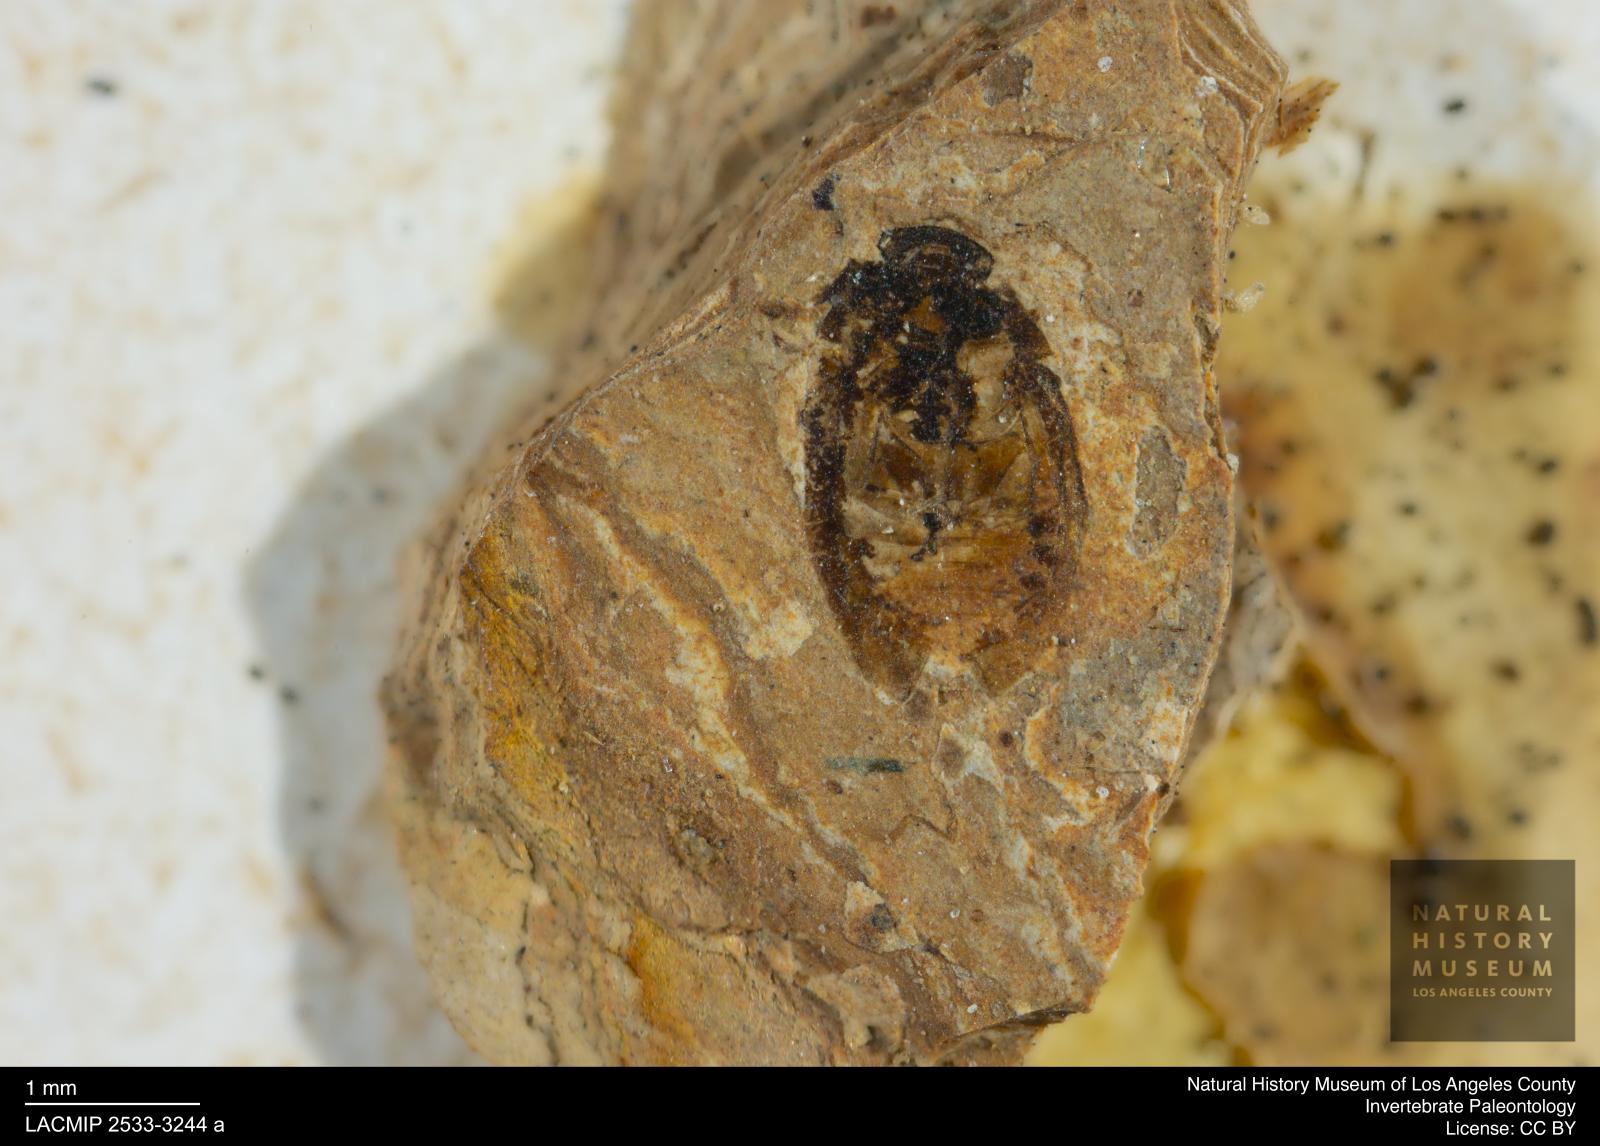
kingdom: Animalia
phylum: Arthropoda
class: Insecta
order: Coleoptera
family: Hydrophilidae
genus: Paracymus
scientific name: Paracymus excitatus
